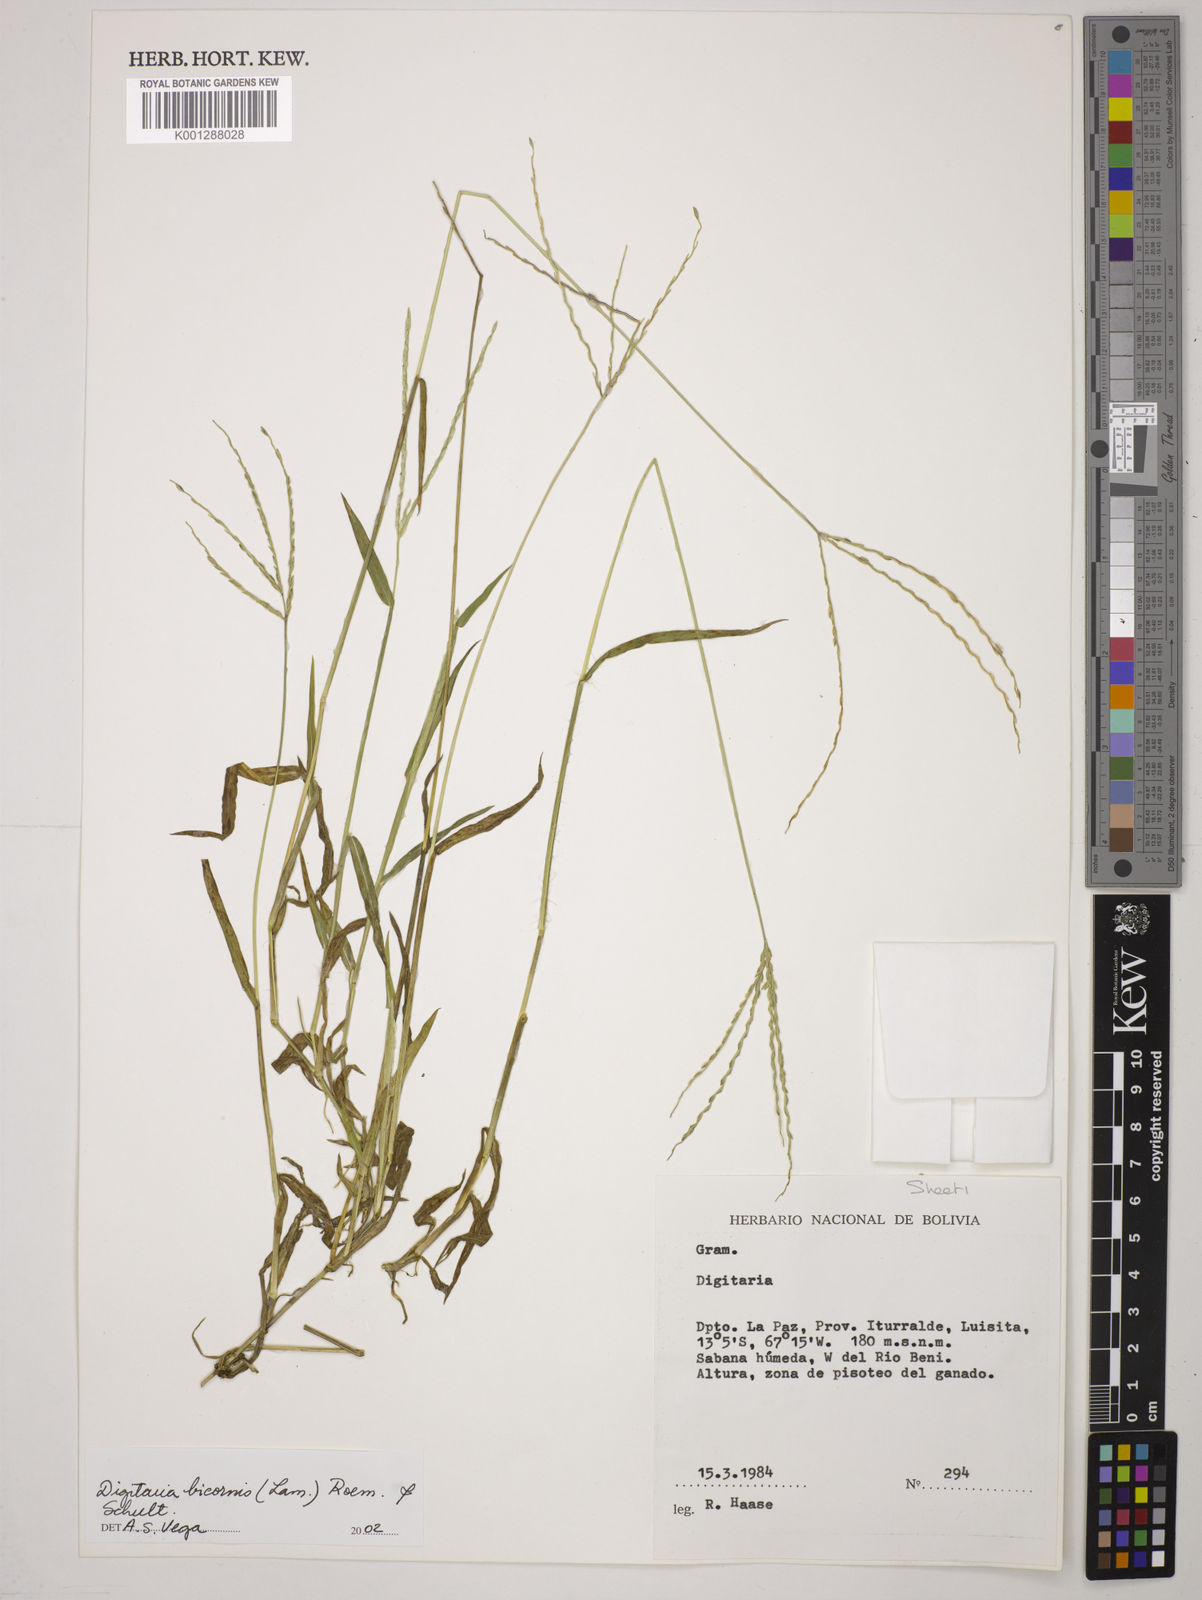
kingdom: Plantae
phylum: Tracheophyta
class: Liliopsida
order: Poales
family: Poaceae
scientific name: Poaceae
